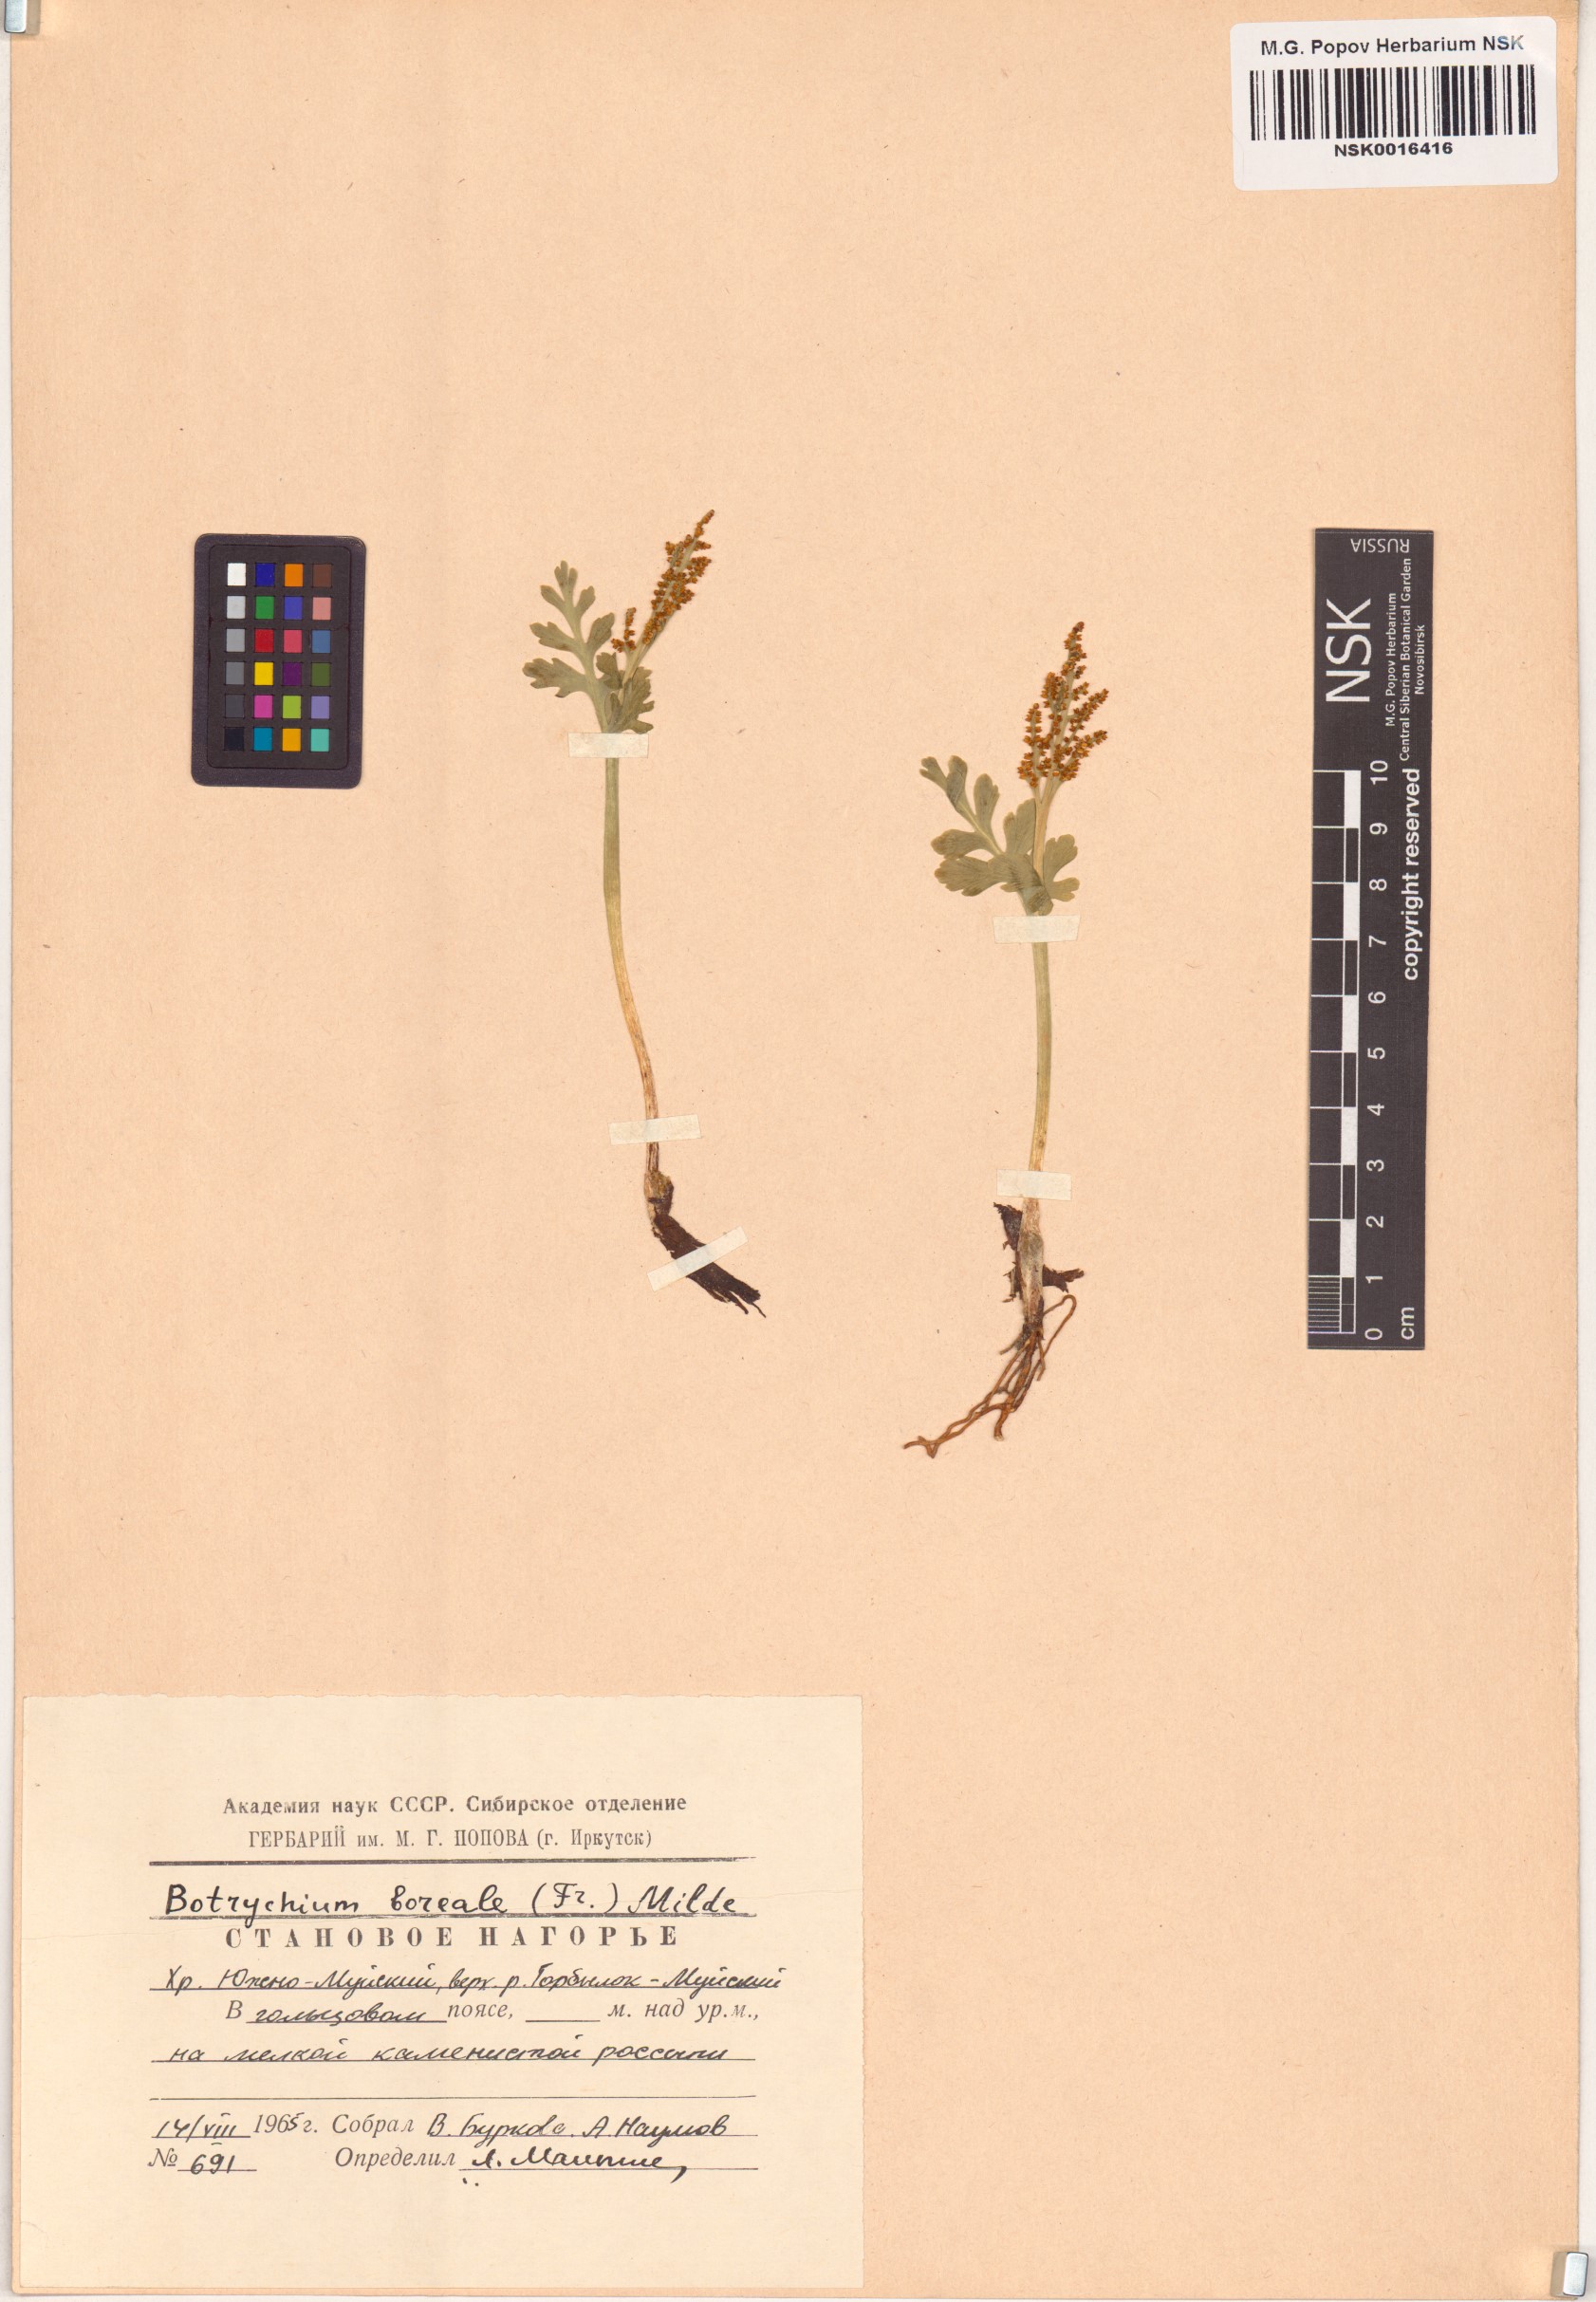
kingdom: Plantae
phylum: Tracheophyta
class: Polypodiopsida
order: Ophioglossales
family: Ophioglossaceae
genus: Botrychium
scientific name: Botrychium boreale
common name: Boreal moonwort
